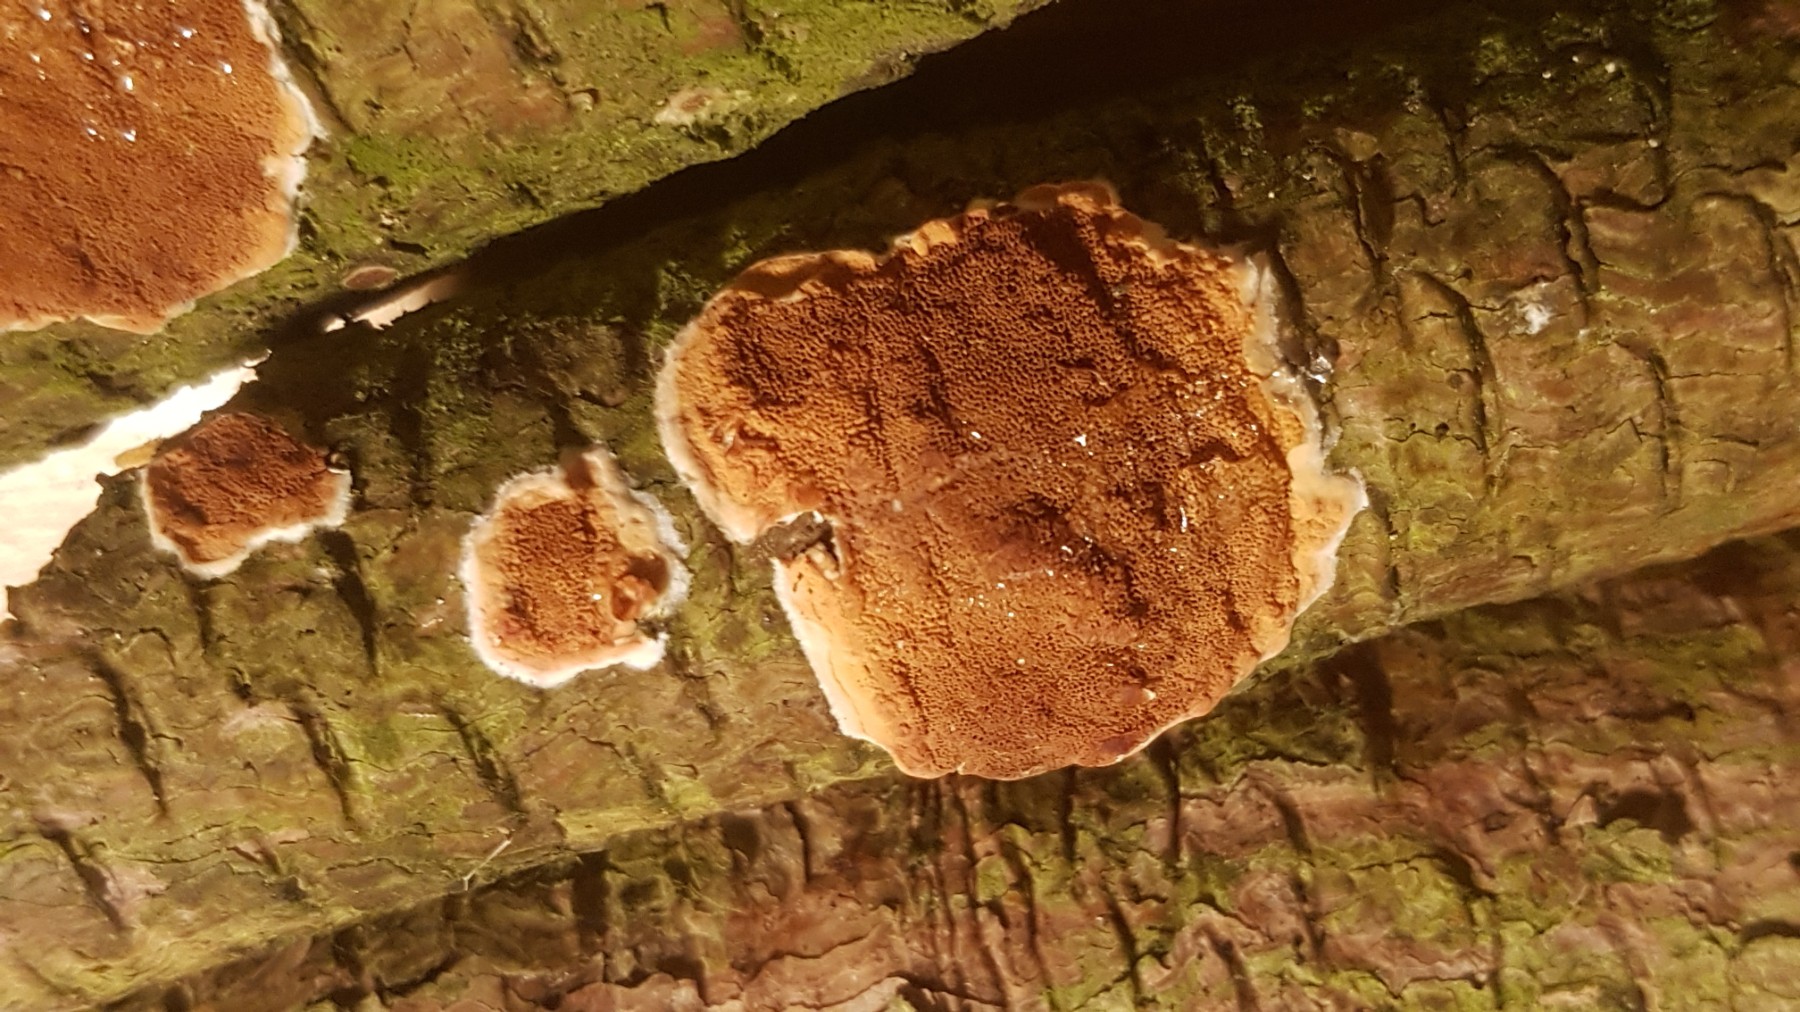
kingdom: Fungi
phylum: Basidiomycota
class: Agaricomycetes
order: Polyporales
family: Irpicaceae
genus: Meruliopsis
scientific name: Meruliopsis taxicola
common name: purpurbrun foldporesvamp
